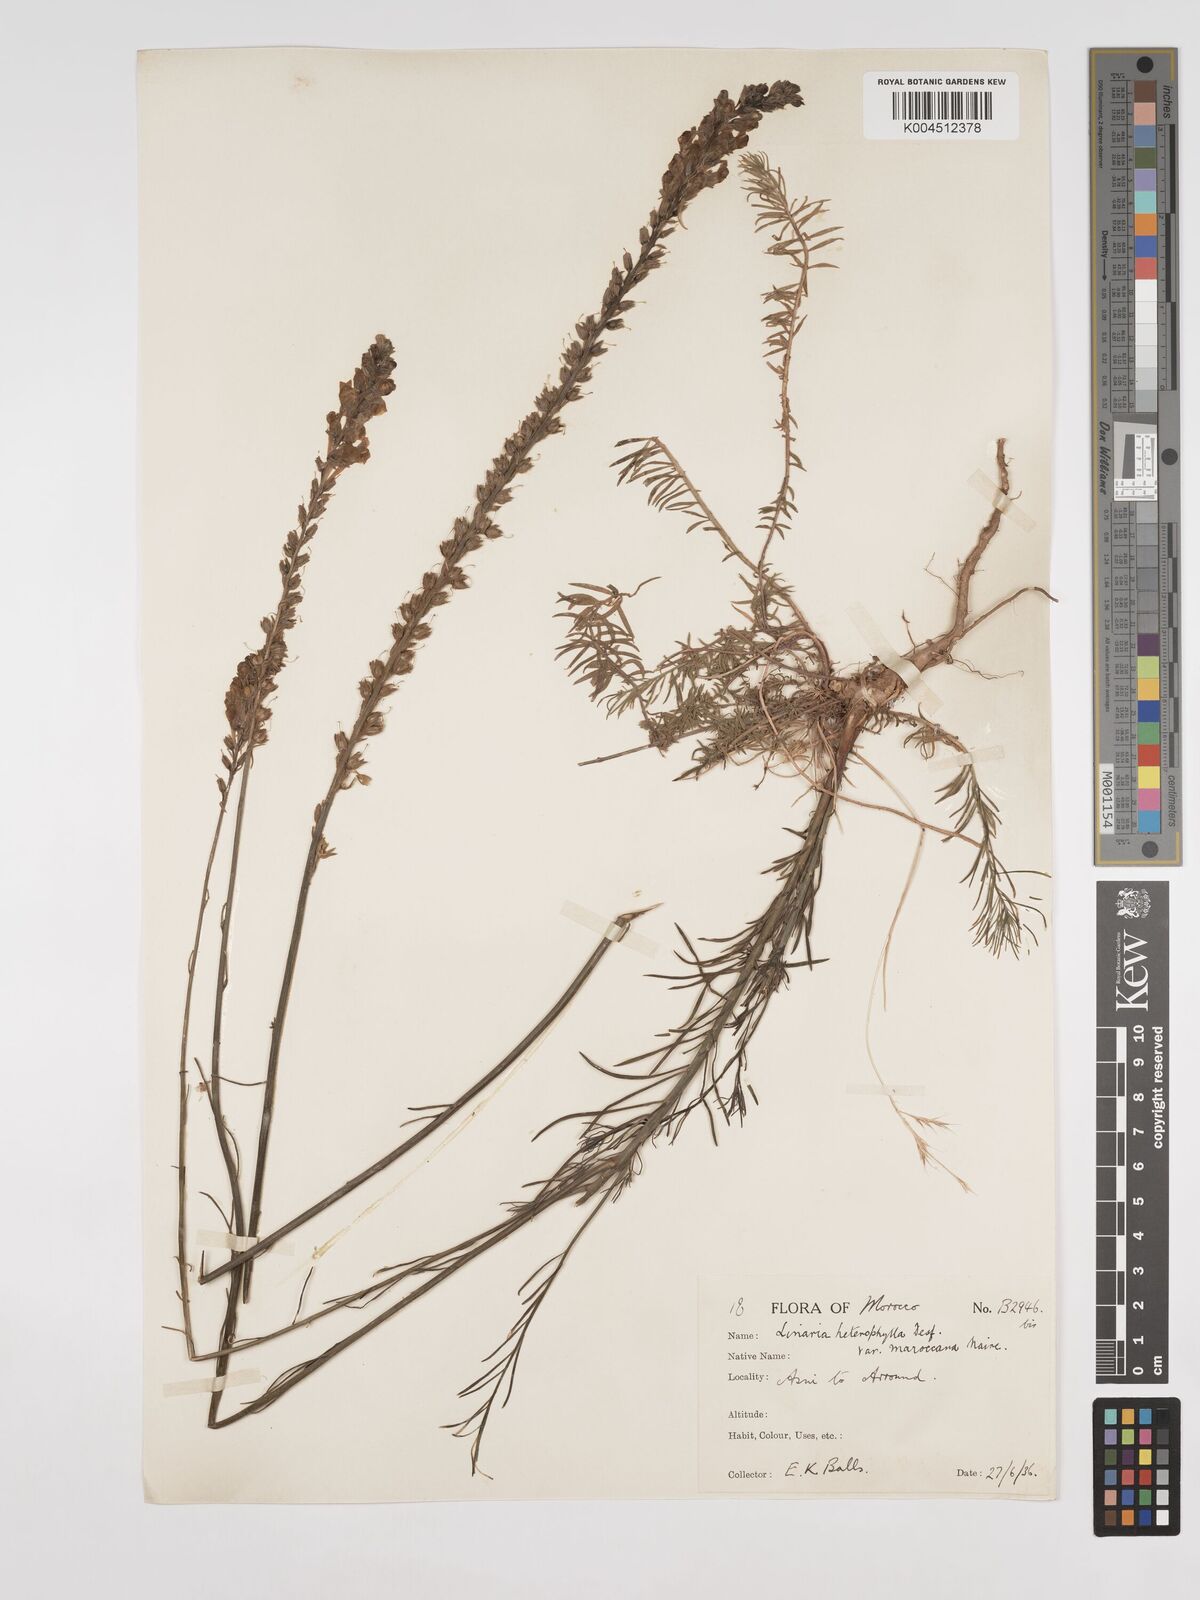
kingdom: Plantae
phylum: Tracheophyta
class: Magnoliopsida
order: Lamiales
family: Plantaginaceae
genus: Linaria
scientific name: Linaria
